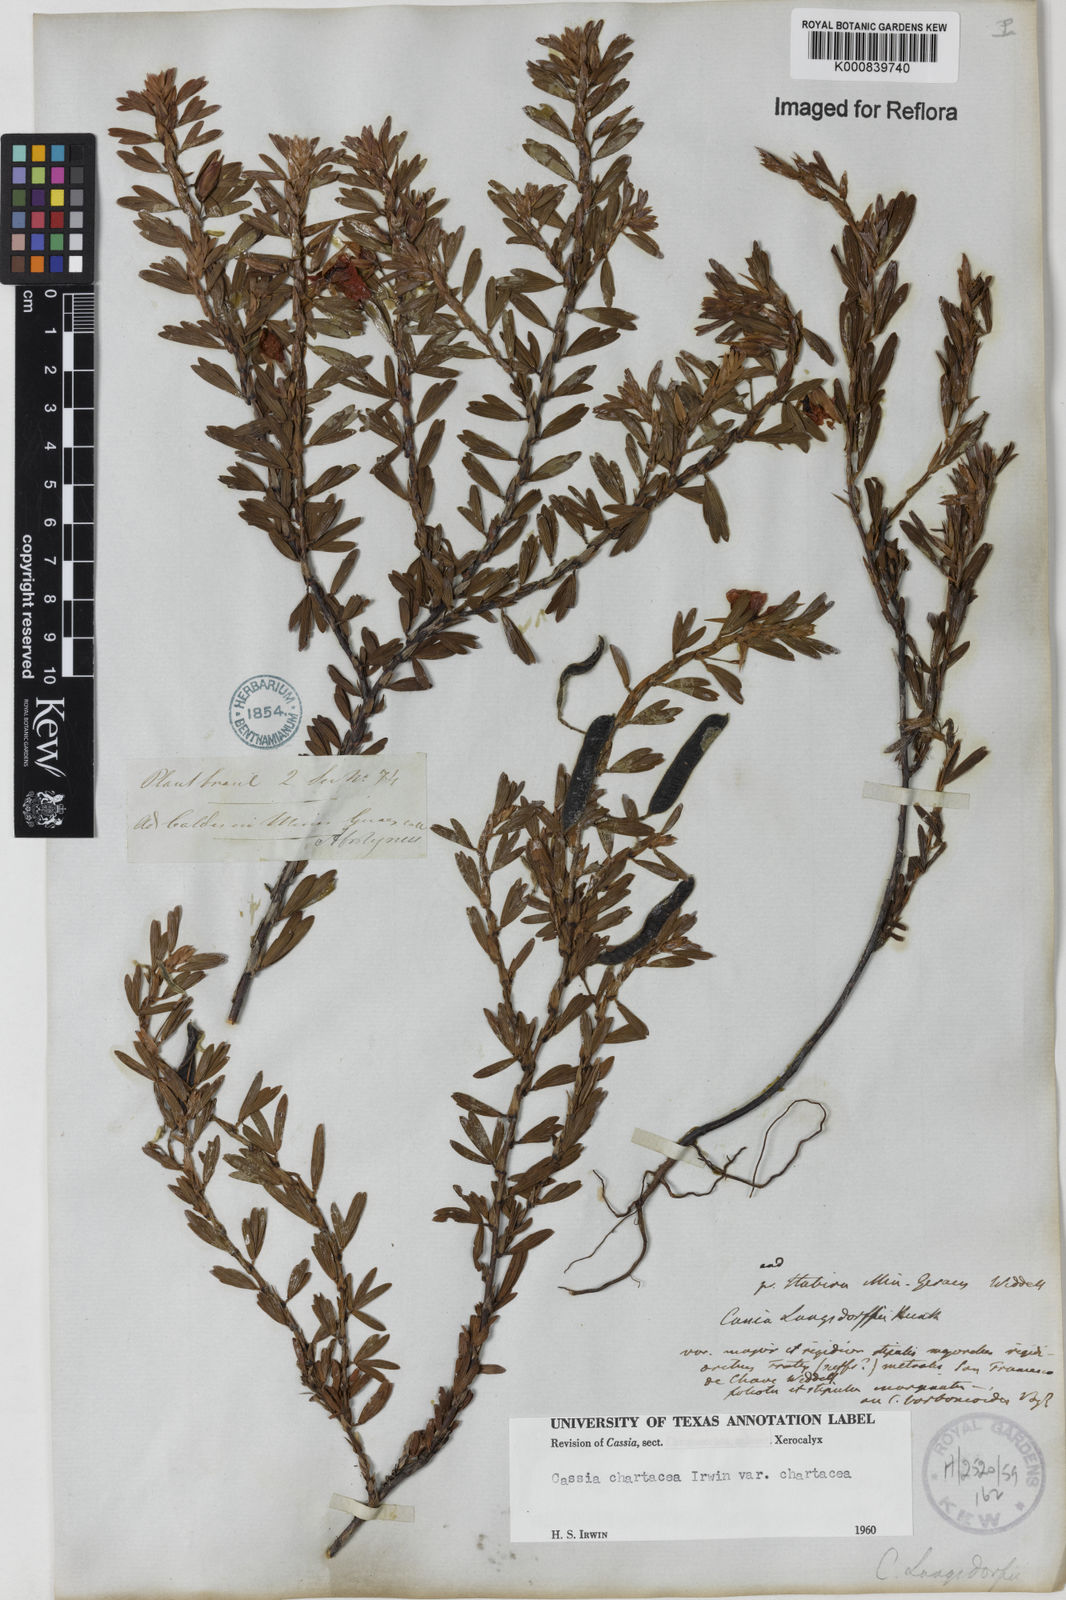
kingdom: Plantae
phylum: Tracheophyta
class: Magnoliopsida
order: Fabales
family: Fabaceae
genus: Chamaecrista
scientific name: Chamaecrista langsdorffii
